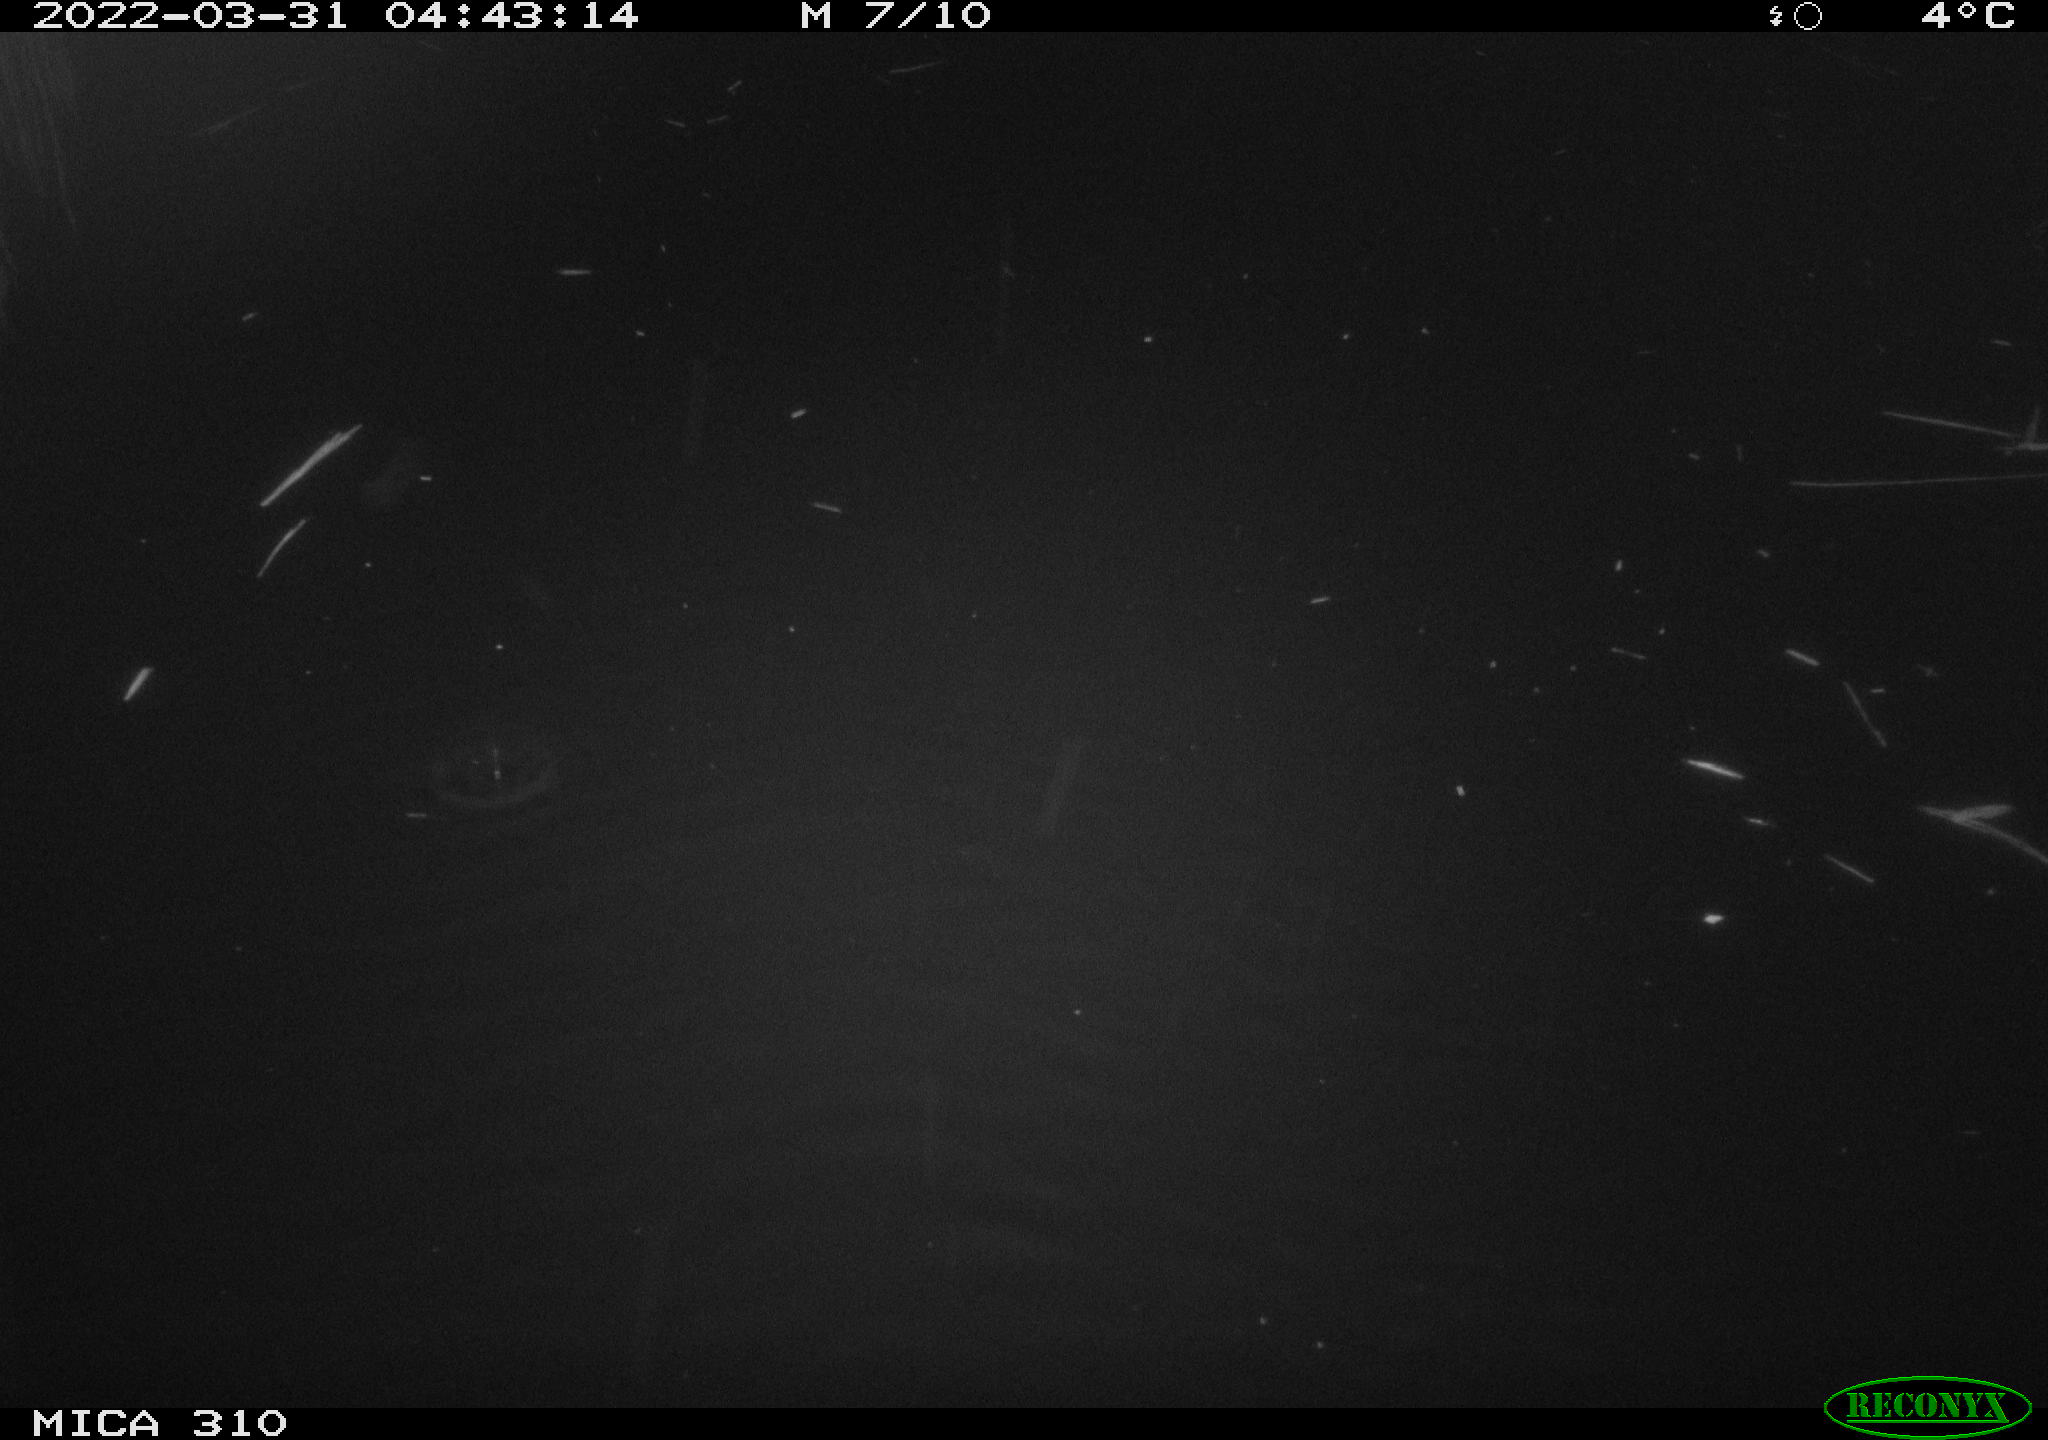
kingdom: Animalia
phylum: Chordata
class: Aves
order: Anseriformes
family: Anatidae
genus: Anas
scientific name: Anas platyrhynchos
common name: Mallard
